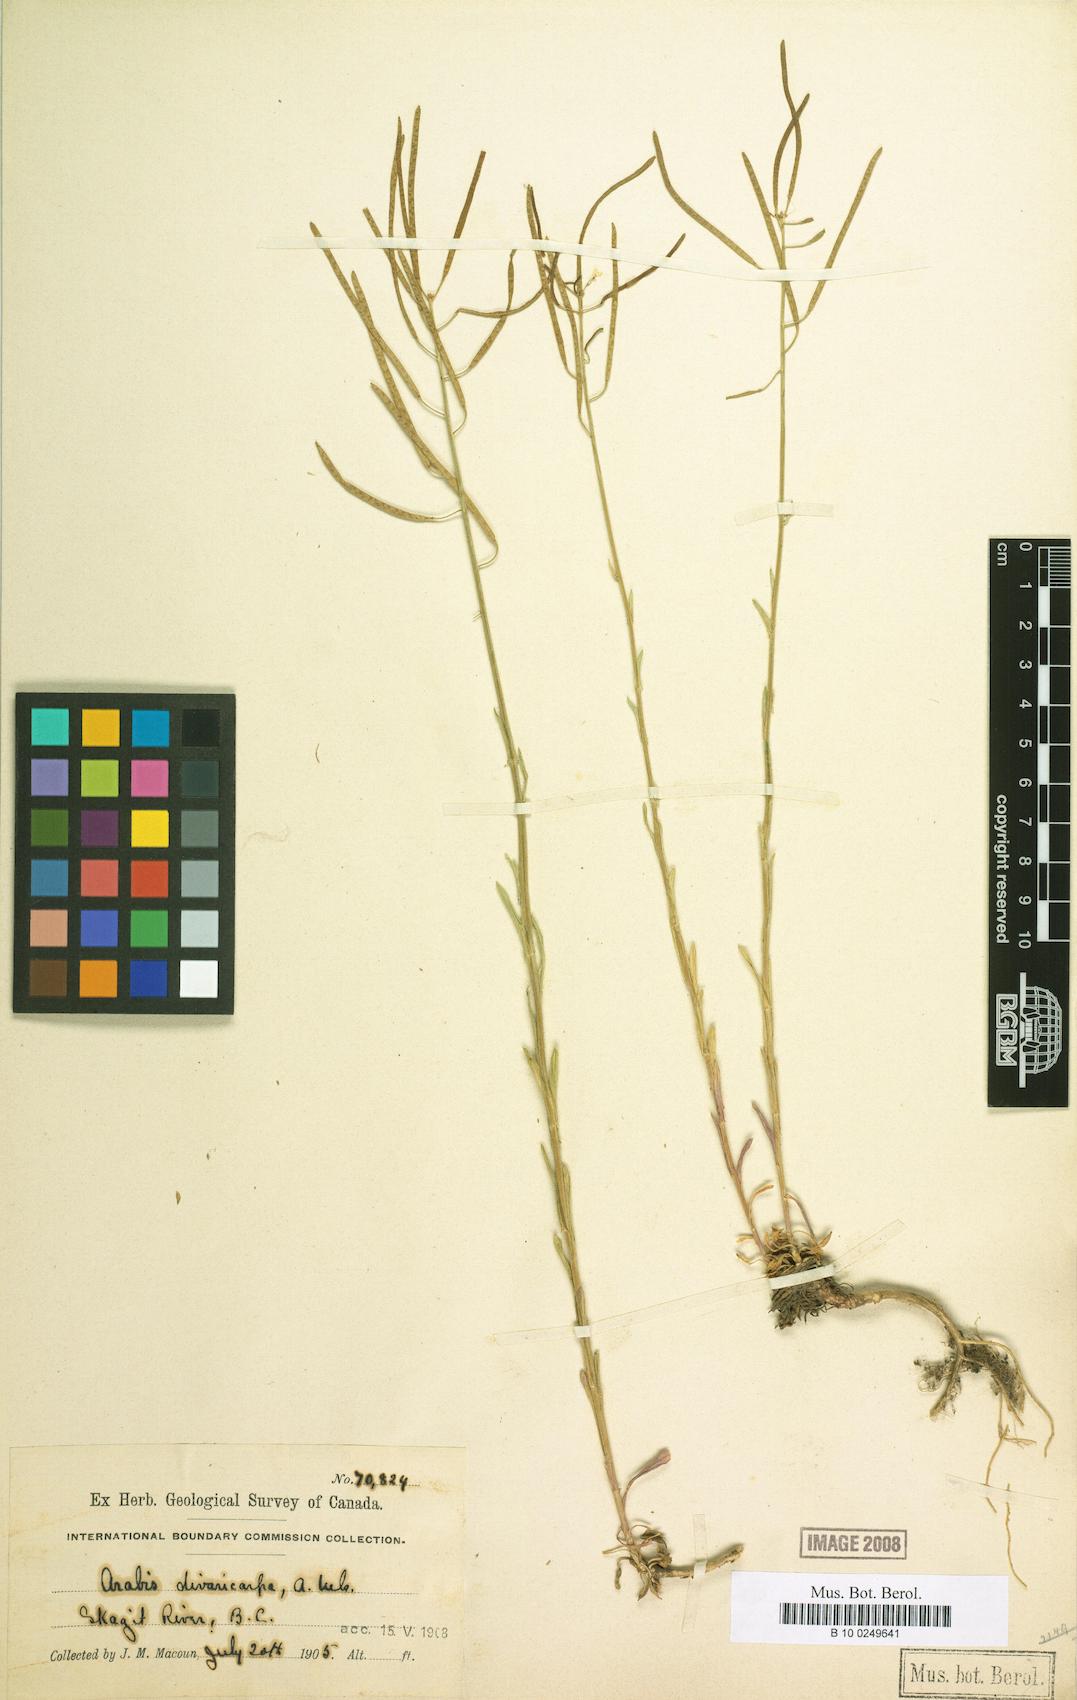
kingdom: Plantae
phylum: Tracheophyta
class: Magnoliopsida
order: Brassicales
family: Brassicaceae
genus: Boechera
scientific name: Boechera divaricarpa
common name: Divaricate rockcress
